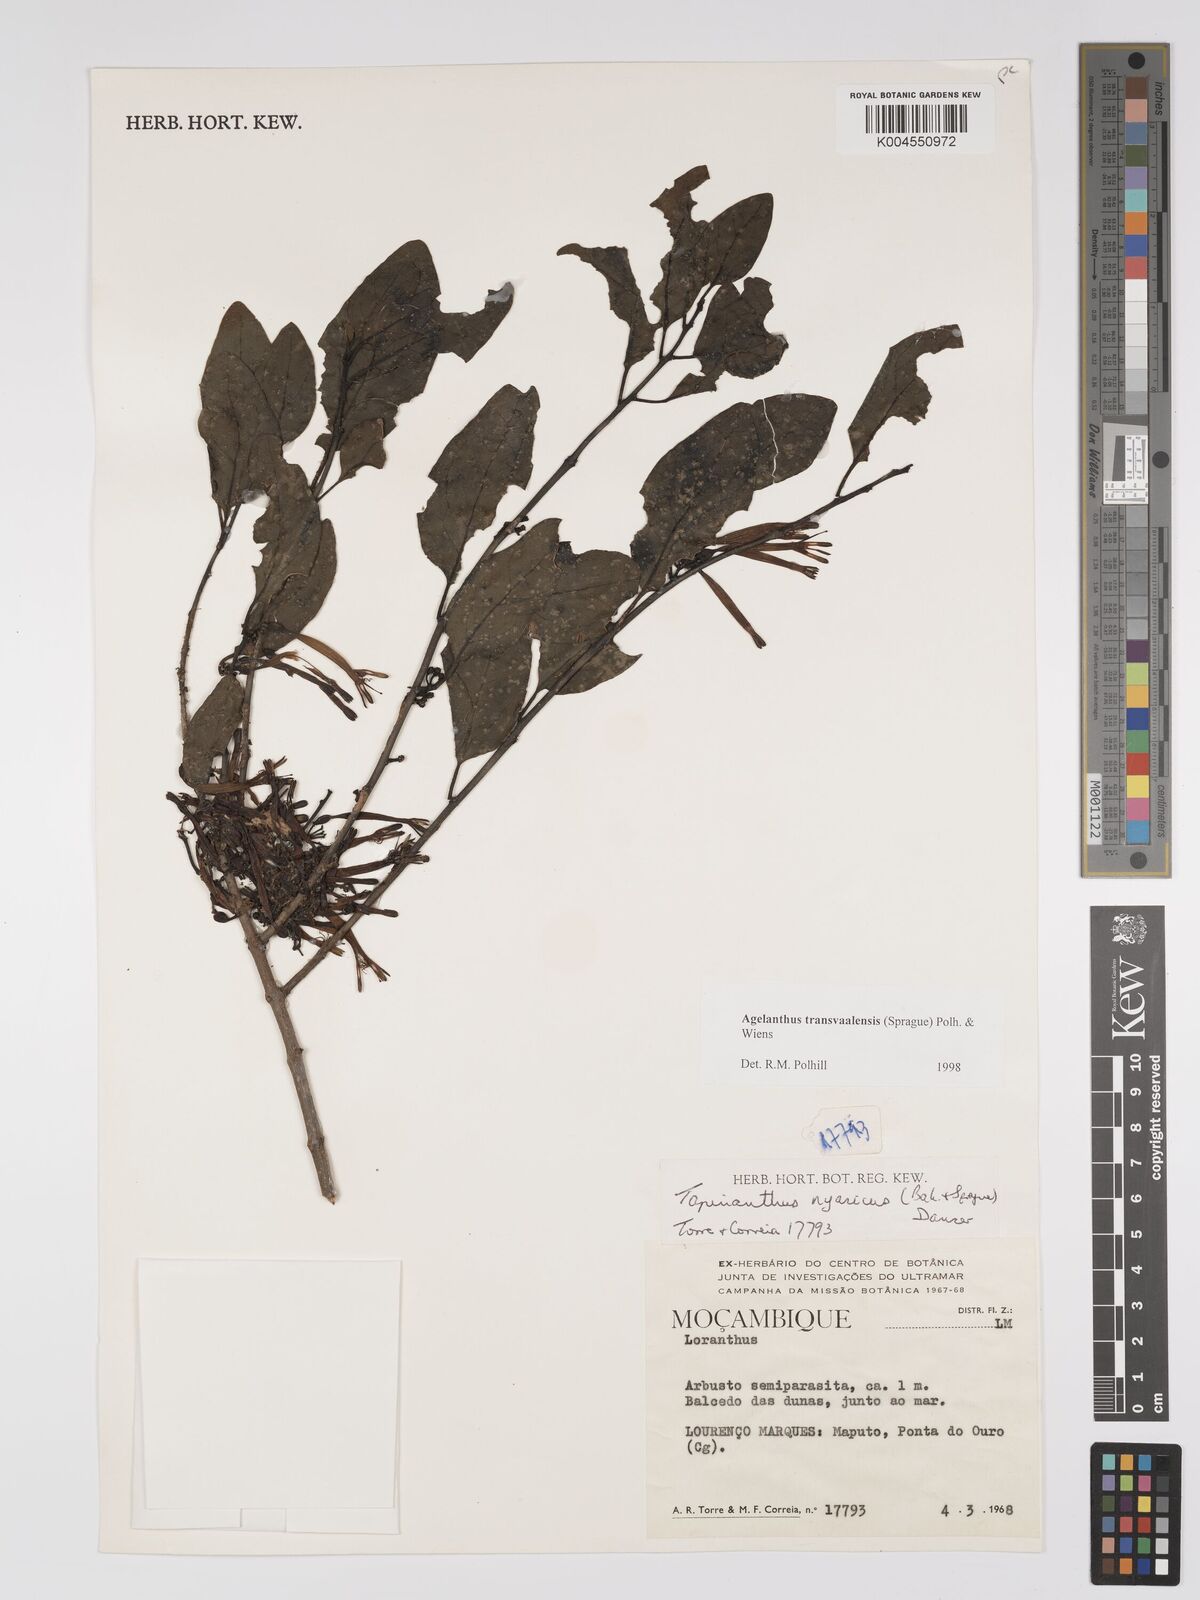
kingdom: Plantae
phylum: Tracheophyta
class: Magnoliopsida
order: Santalales
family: Loranthaceae
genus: Agelanthus
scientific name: Agelanthus transvaalensis
